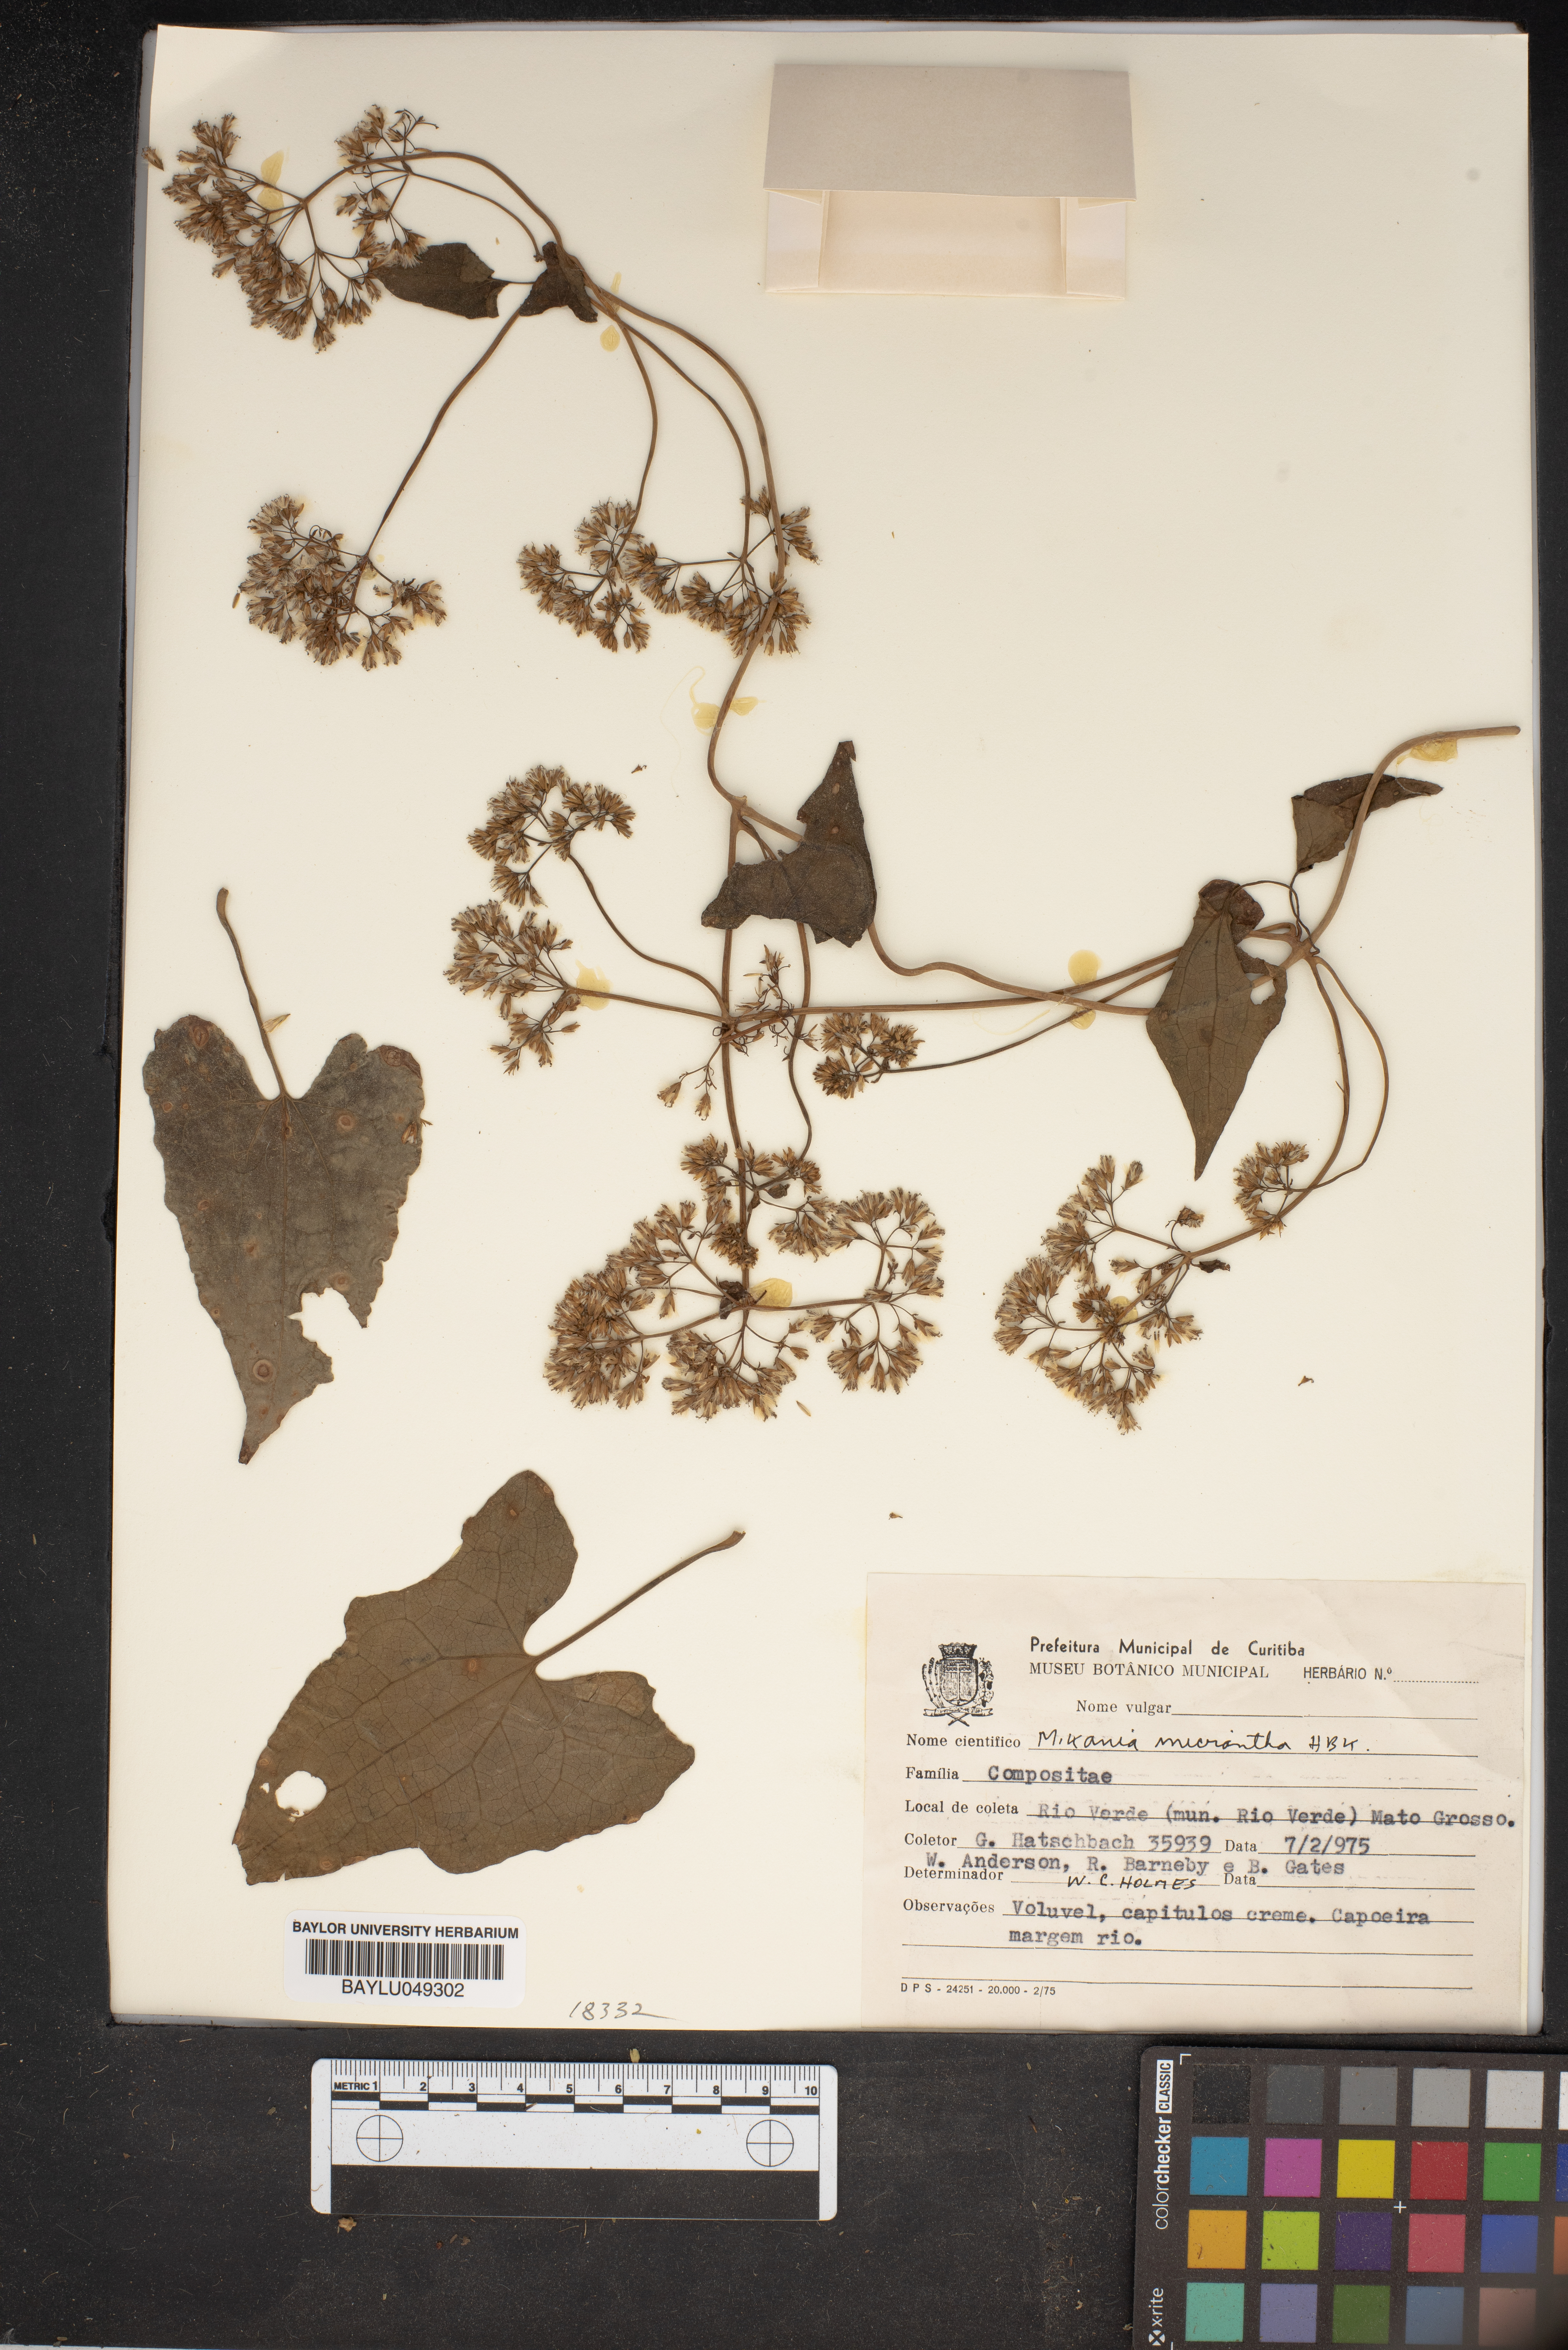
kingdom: Plantae
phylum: Tracheophyta
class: Magnoliopsida
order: Asterales
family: Asteraceae
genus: Mikania
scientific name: Mikania micrantha
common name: Mile-a-minute
